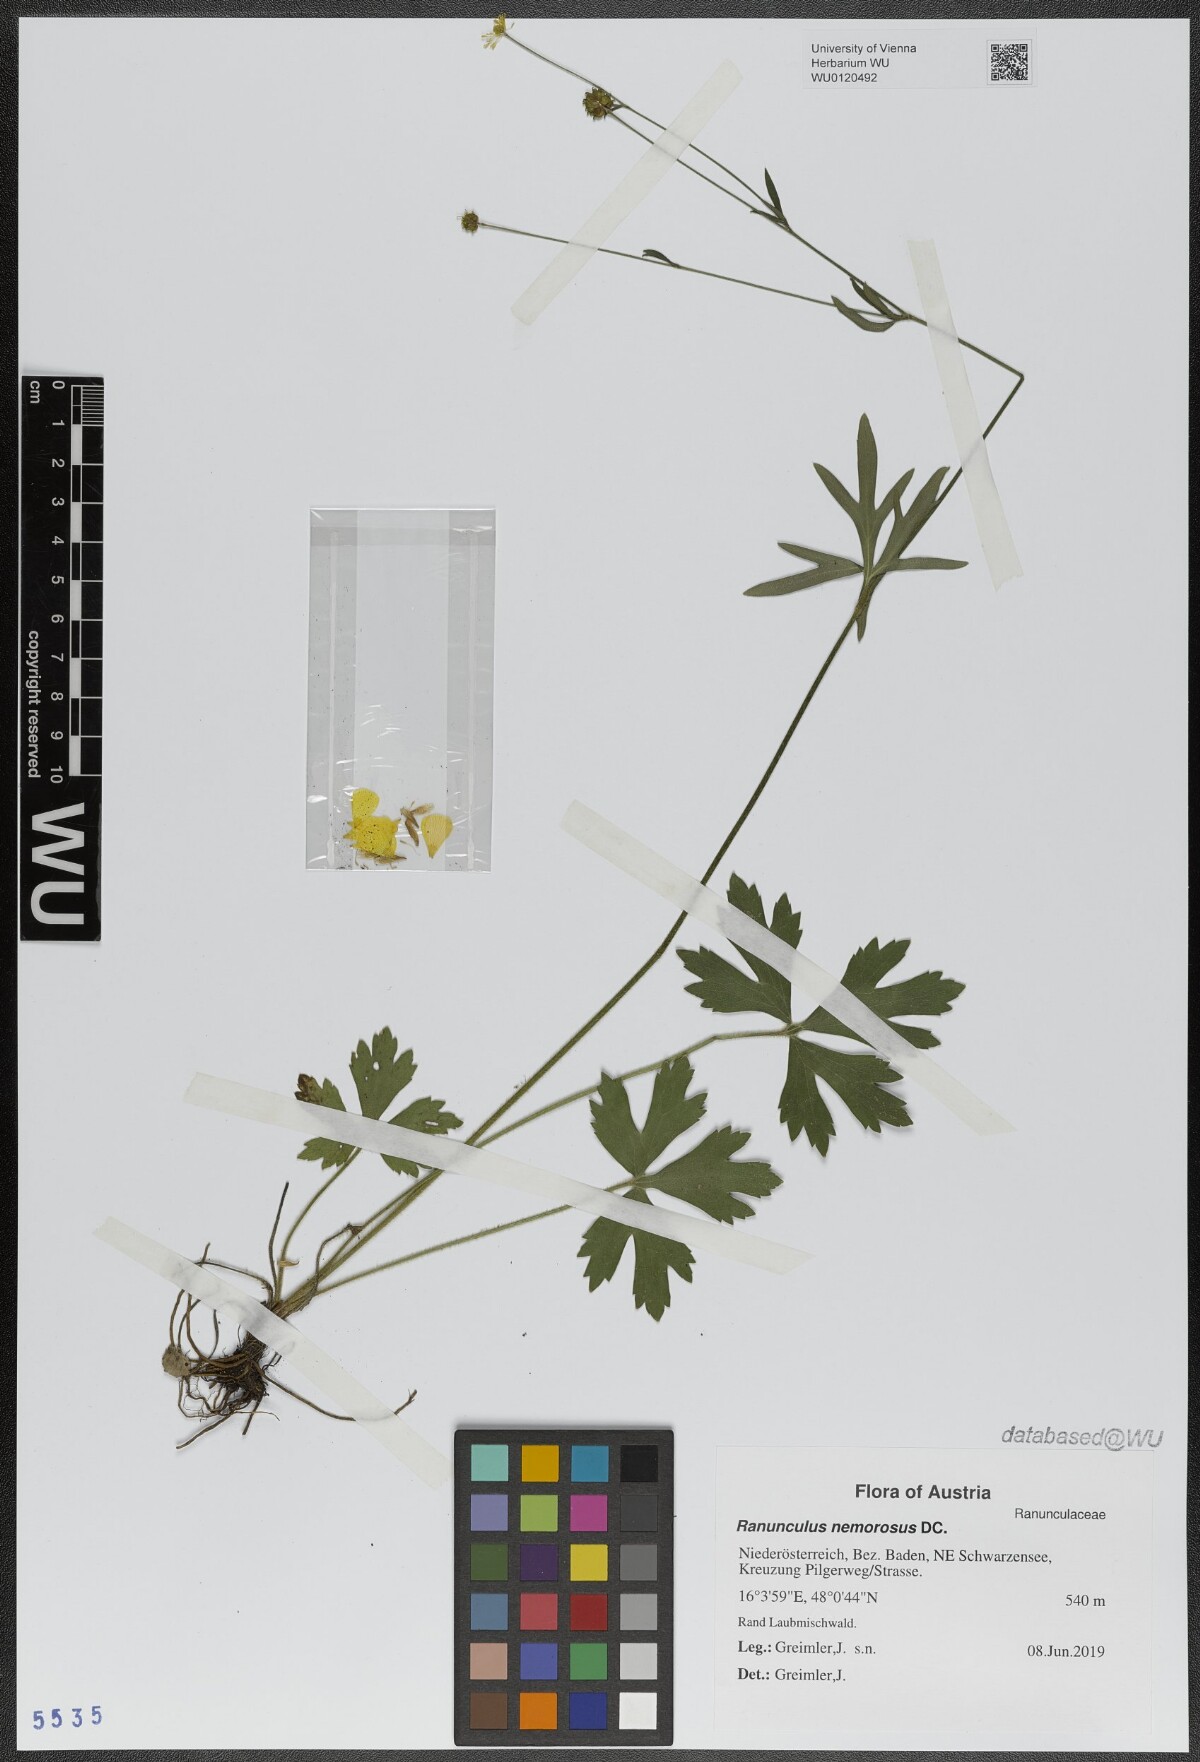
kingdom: Plantae
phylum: Tracheophyta
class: Magnoliopsida
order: Ranunculales
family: Ranunculaceae
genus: Ranunculus
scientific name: Ranunculus polyanthemos
